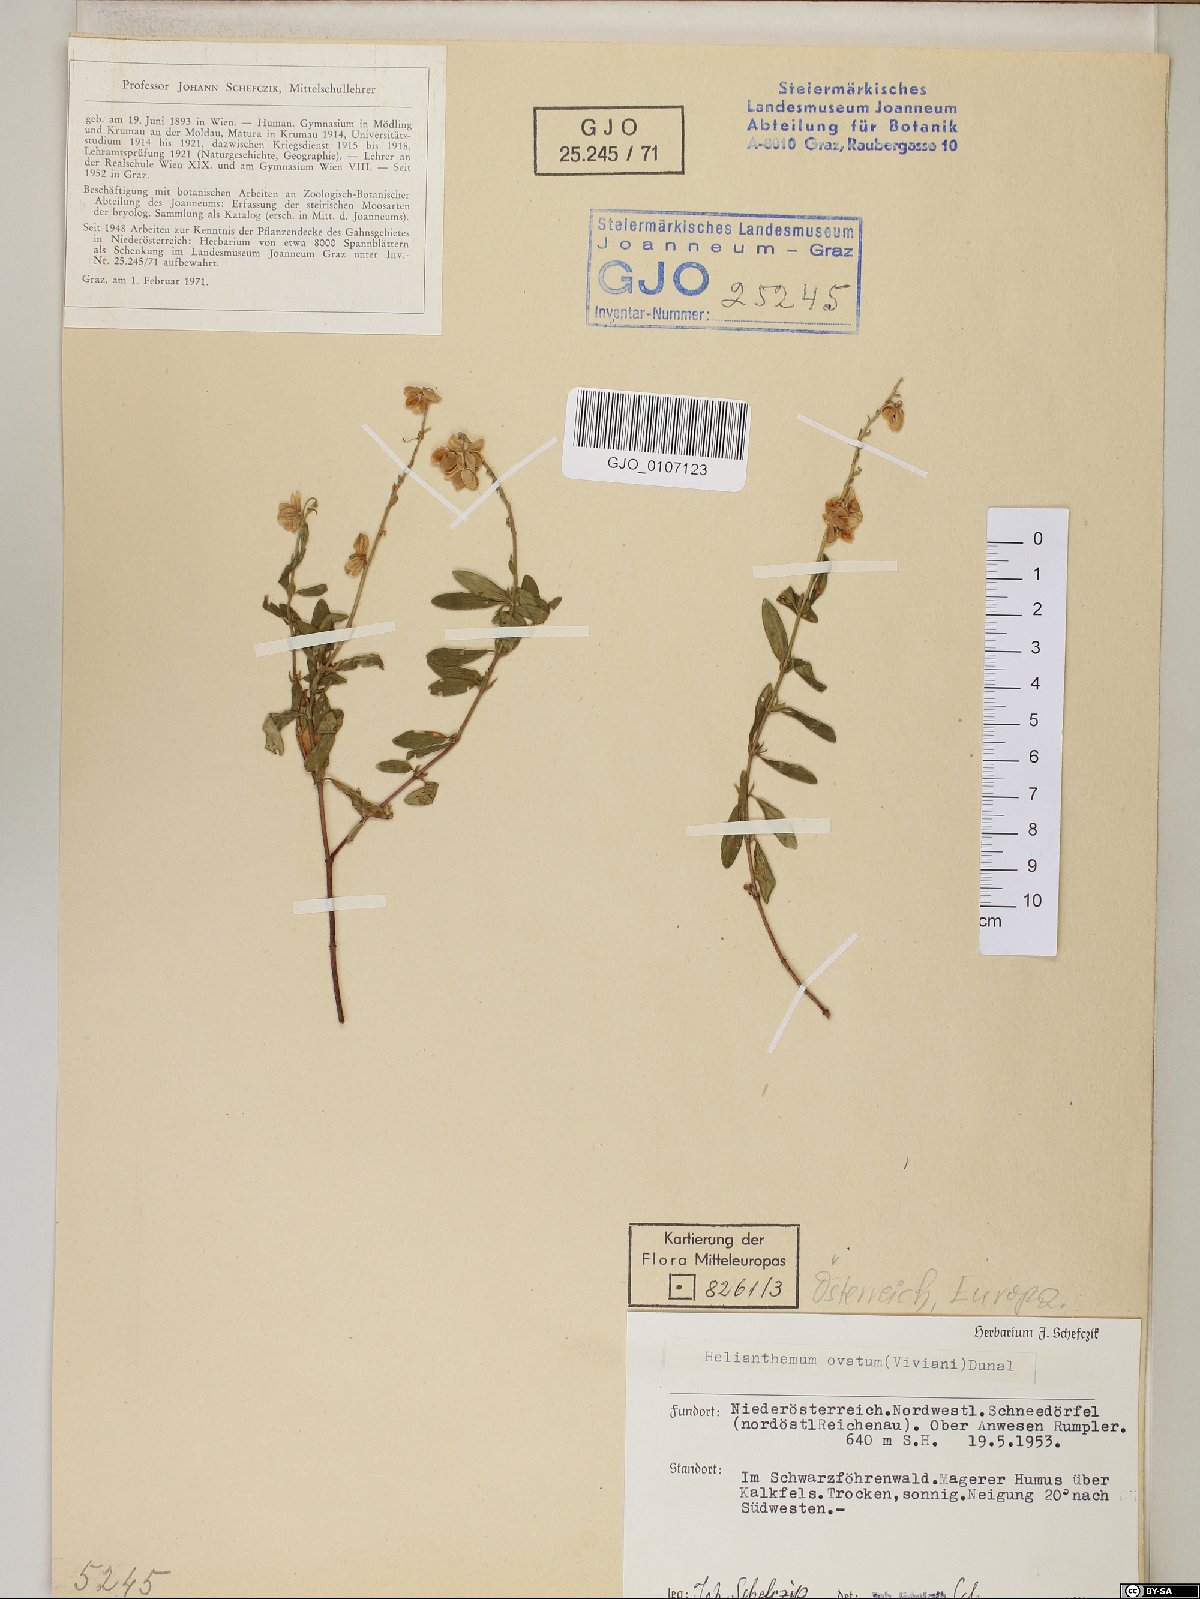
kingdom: Plantae
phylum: Tracheophyta
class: Magnoliopsida
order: Malvales
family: Cistaceae
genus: Helianthemum
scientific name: Helianthemum nummularium
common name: Common rock-rose
